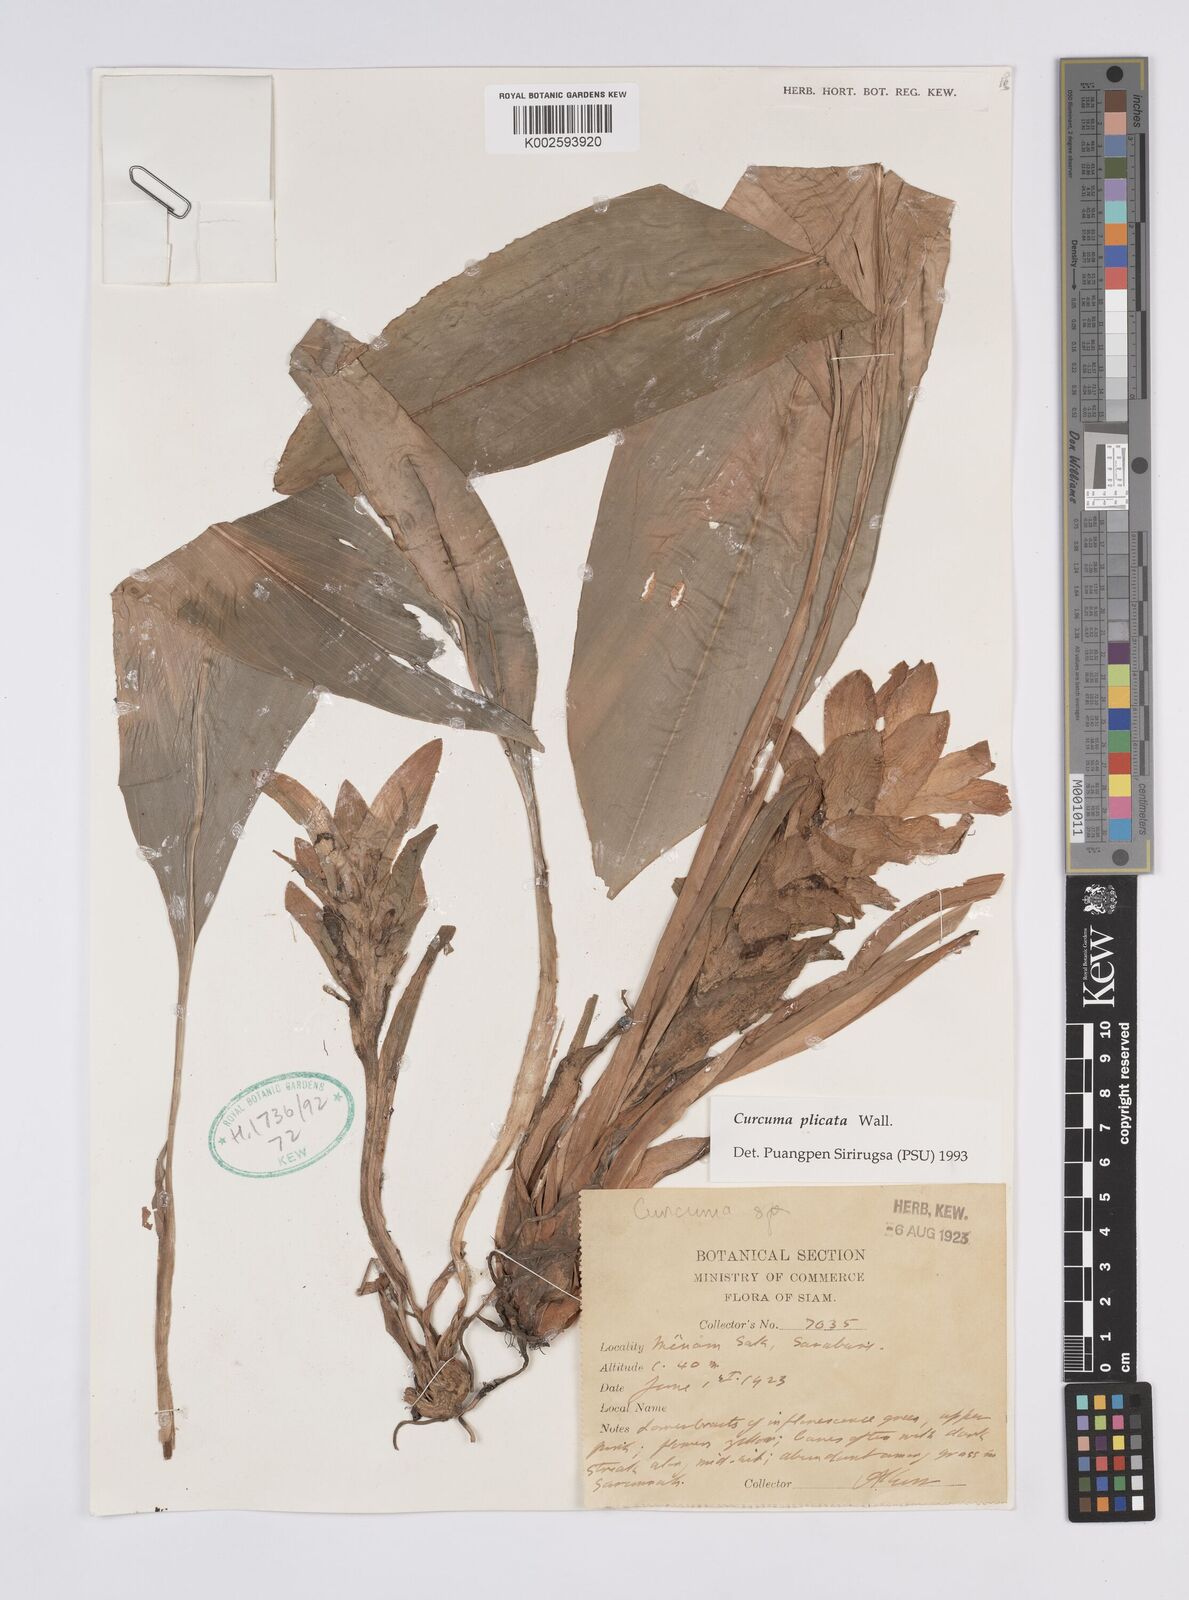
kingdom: Plantae
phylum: Tracheophyta
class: Liliopsida
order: Zingiberales
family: Zingiberaceae
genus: Curcuma
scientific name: Curcuma plicata
